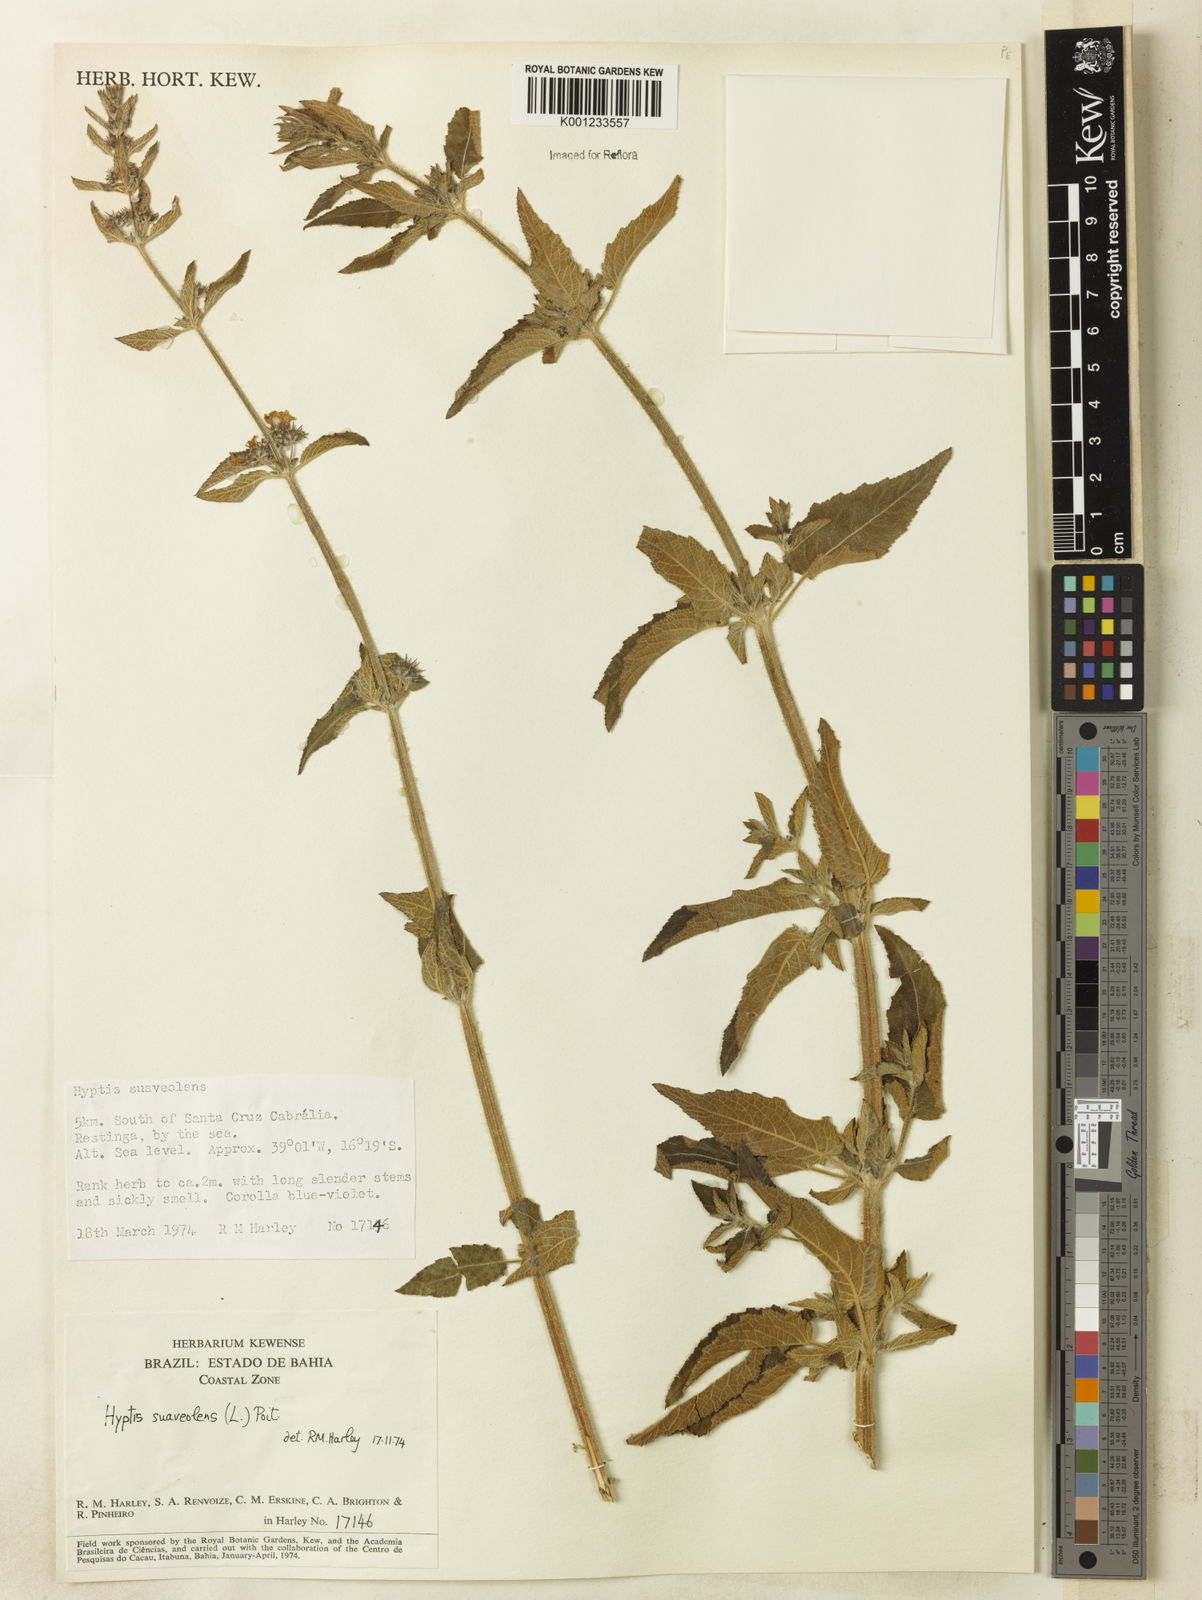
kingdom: Plantae
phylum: Tracheophyta
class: Magnoliopsida
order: Lamiales
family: Lamiaceae
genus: Mesosphaerum
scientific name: Mesosphaerum suaveolens
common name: Pignut
